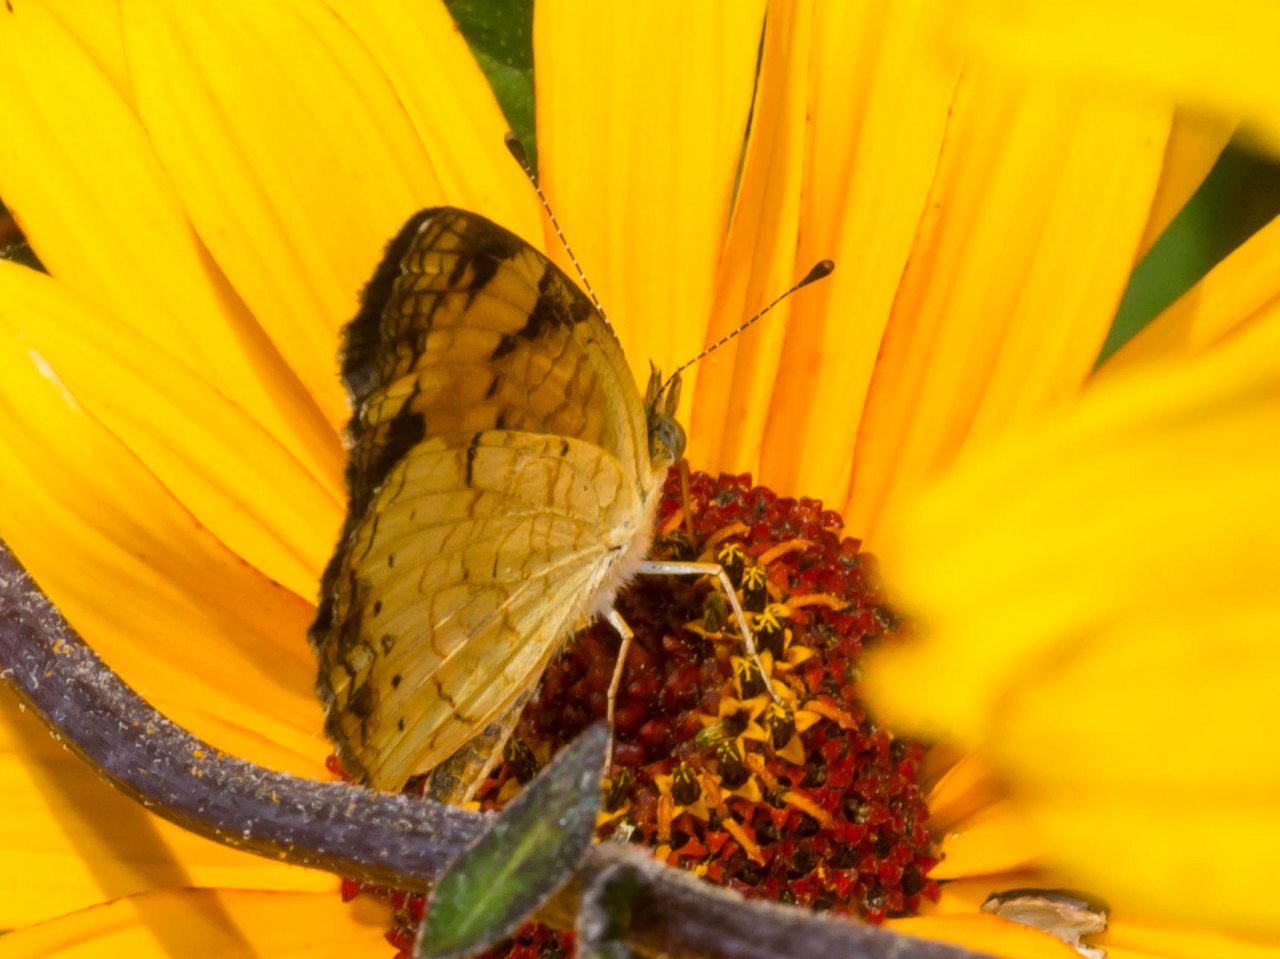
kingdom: Animalia
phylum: Arthropoda
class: Insecta
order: Lepidoptera
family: Nymphalidae
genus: Phyciodes
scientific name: Phyciodes tharos
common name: Pearl Crescent
